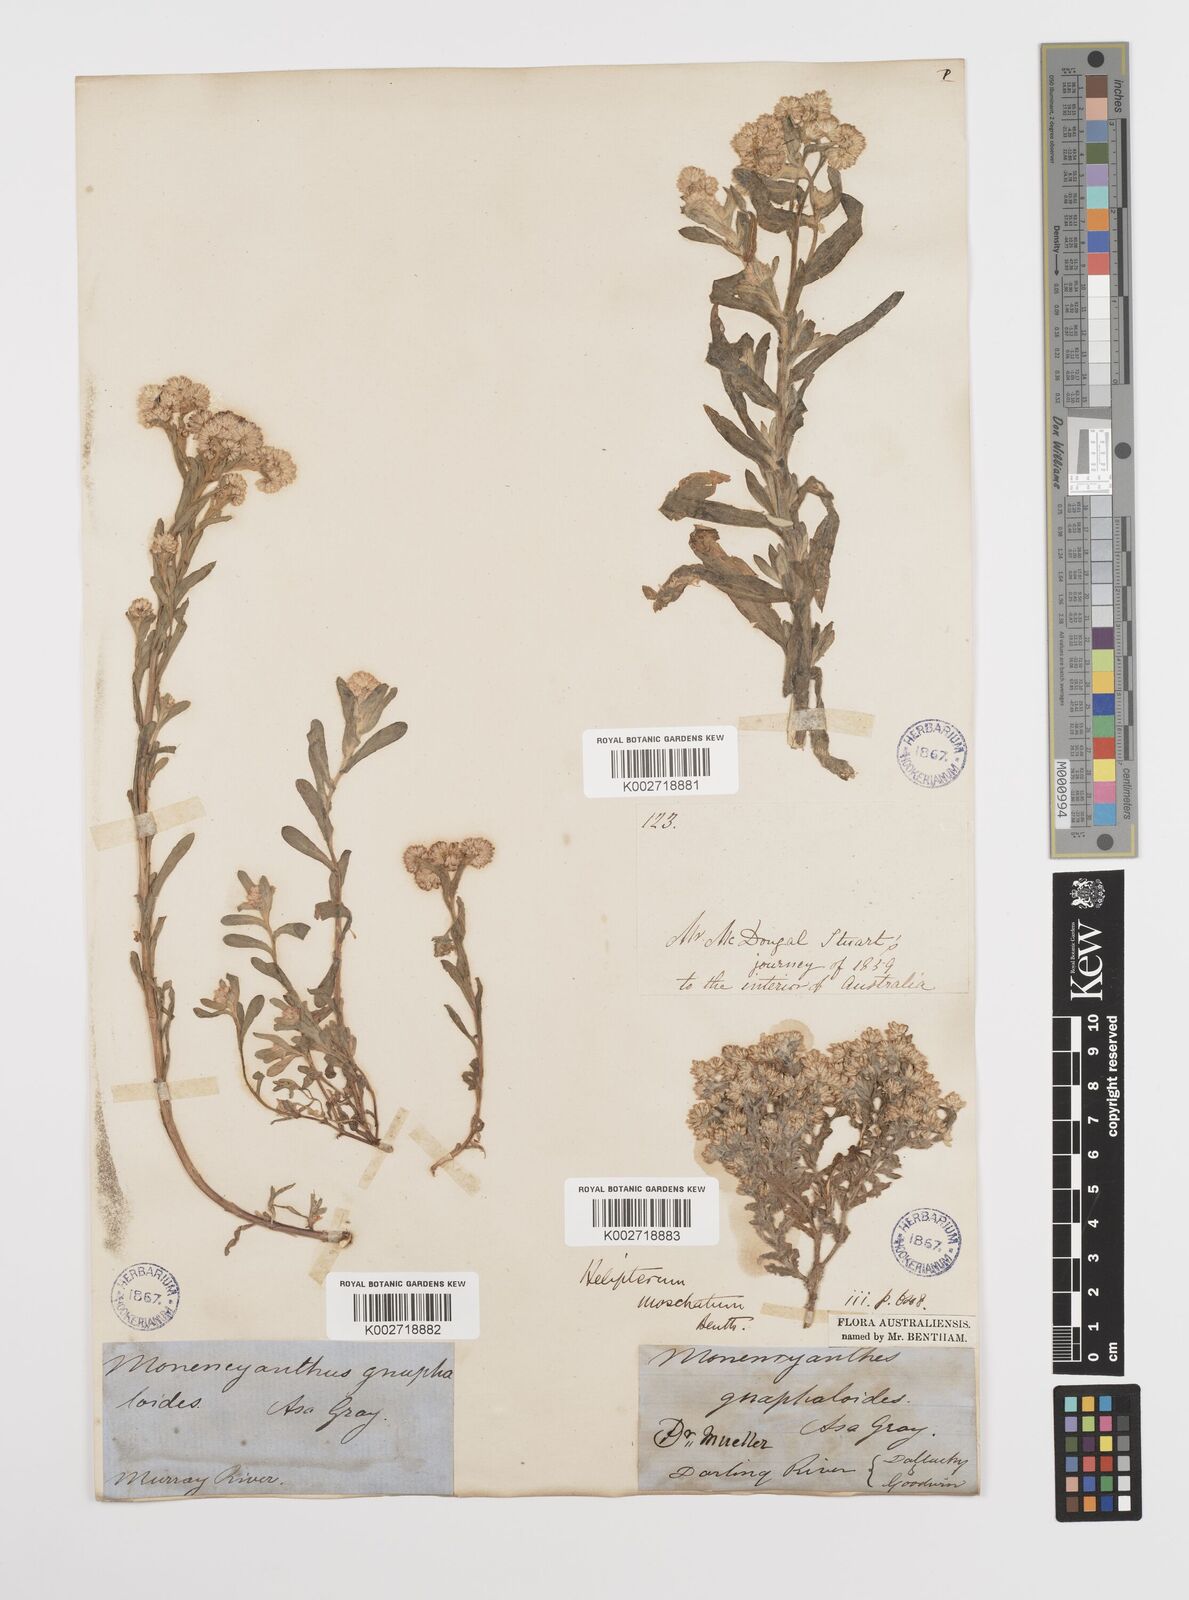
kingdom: Plantae
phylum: Tracheophyta
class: Magnoliopsida
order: Asterales
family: Asteraceae
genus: Rhodanthe
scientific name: Rhodanthe moschata
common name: Musk sunray
